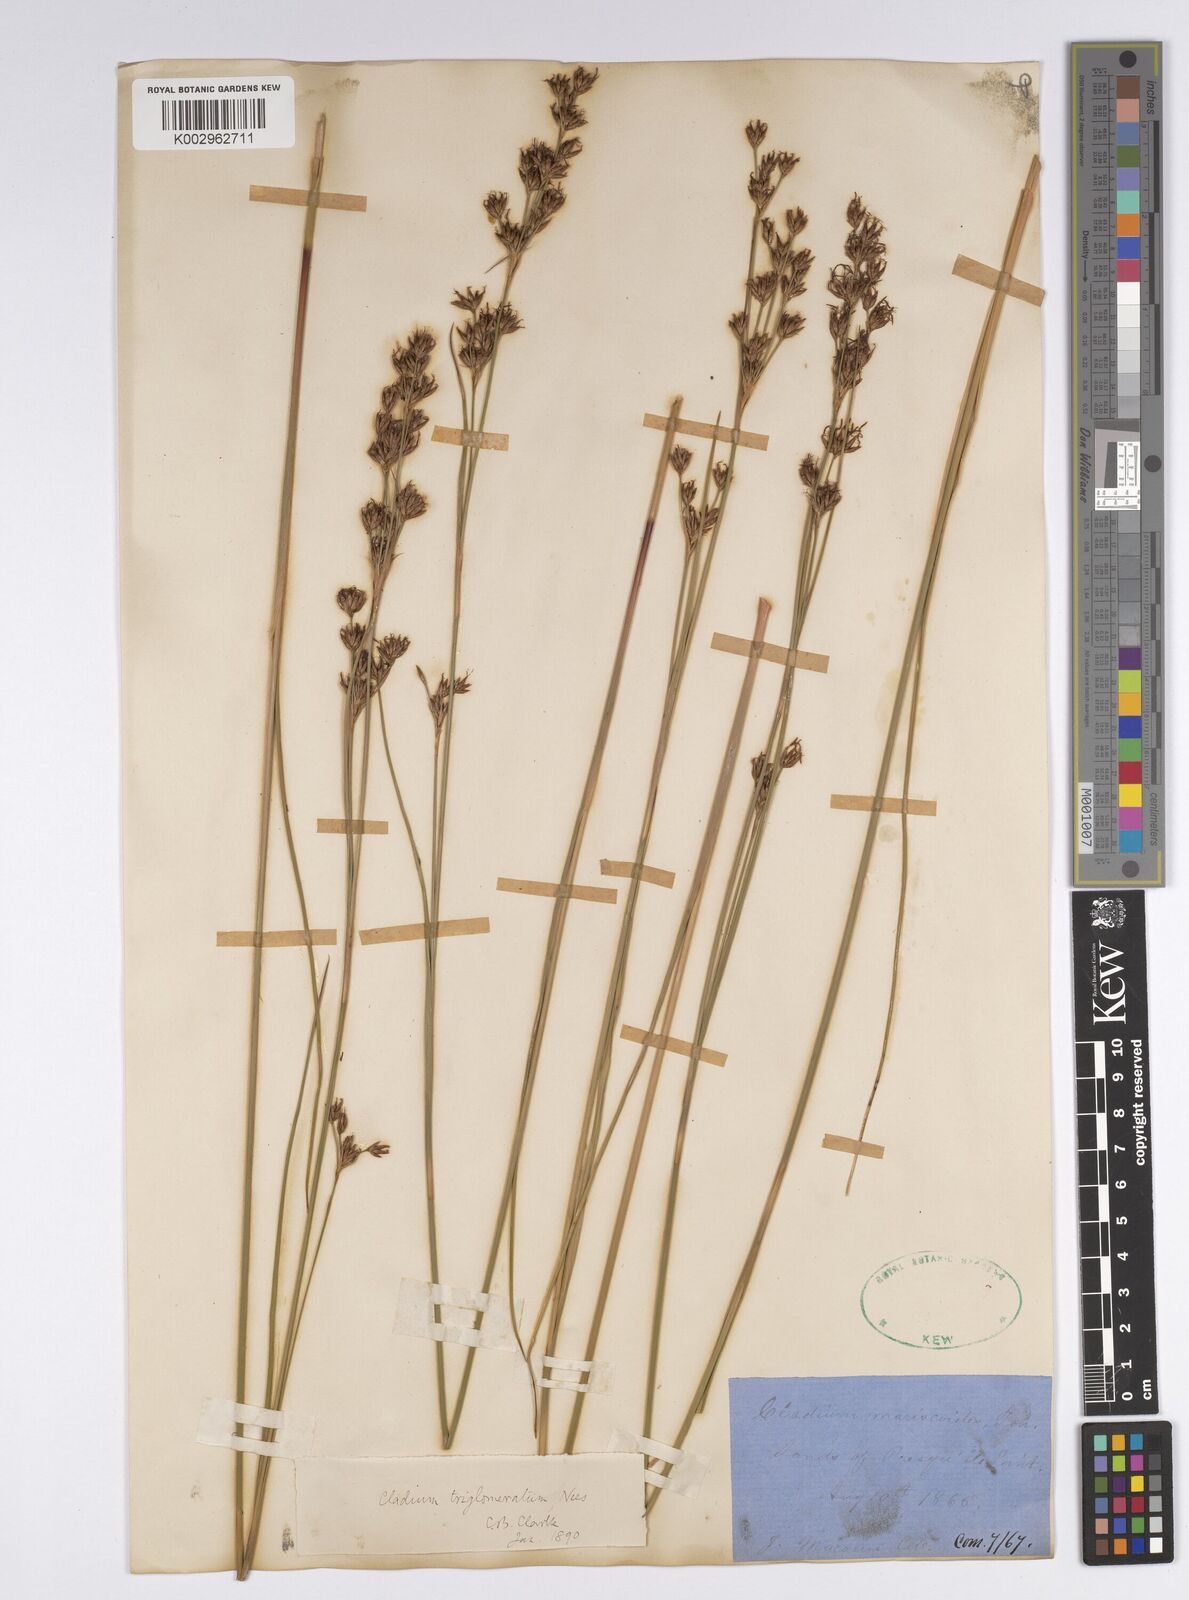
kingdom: Plantae
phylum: Tracheophyta
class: Liliopsida
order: Poales
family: Cyperaceae
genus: Cladium
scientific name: Cladium mariscoides
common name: Smooth sawgrass
